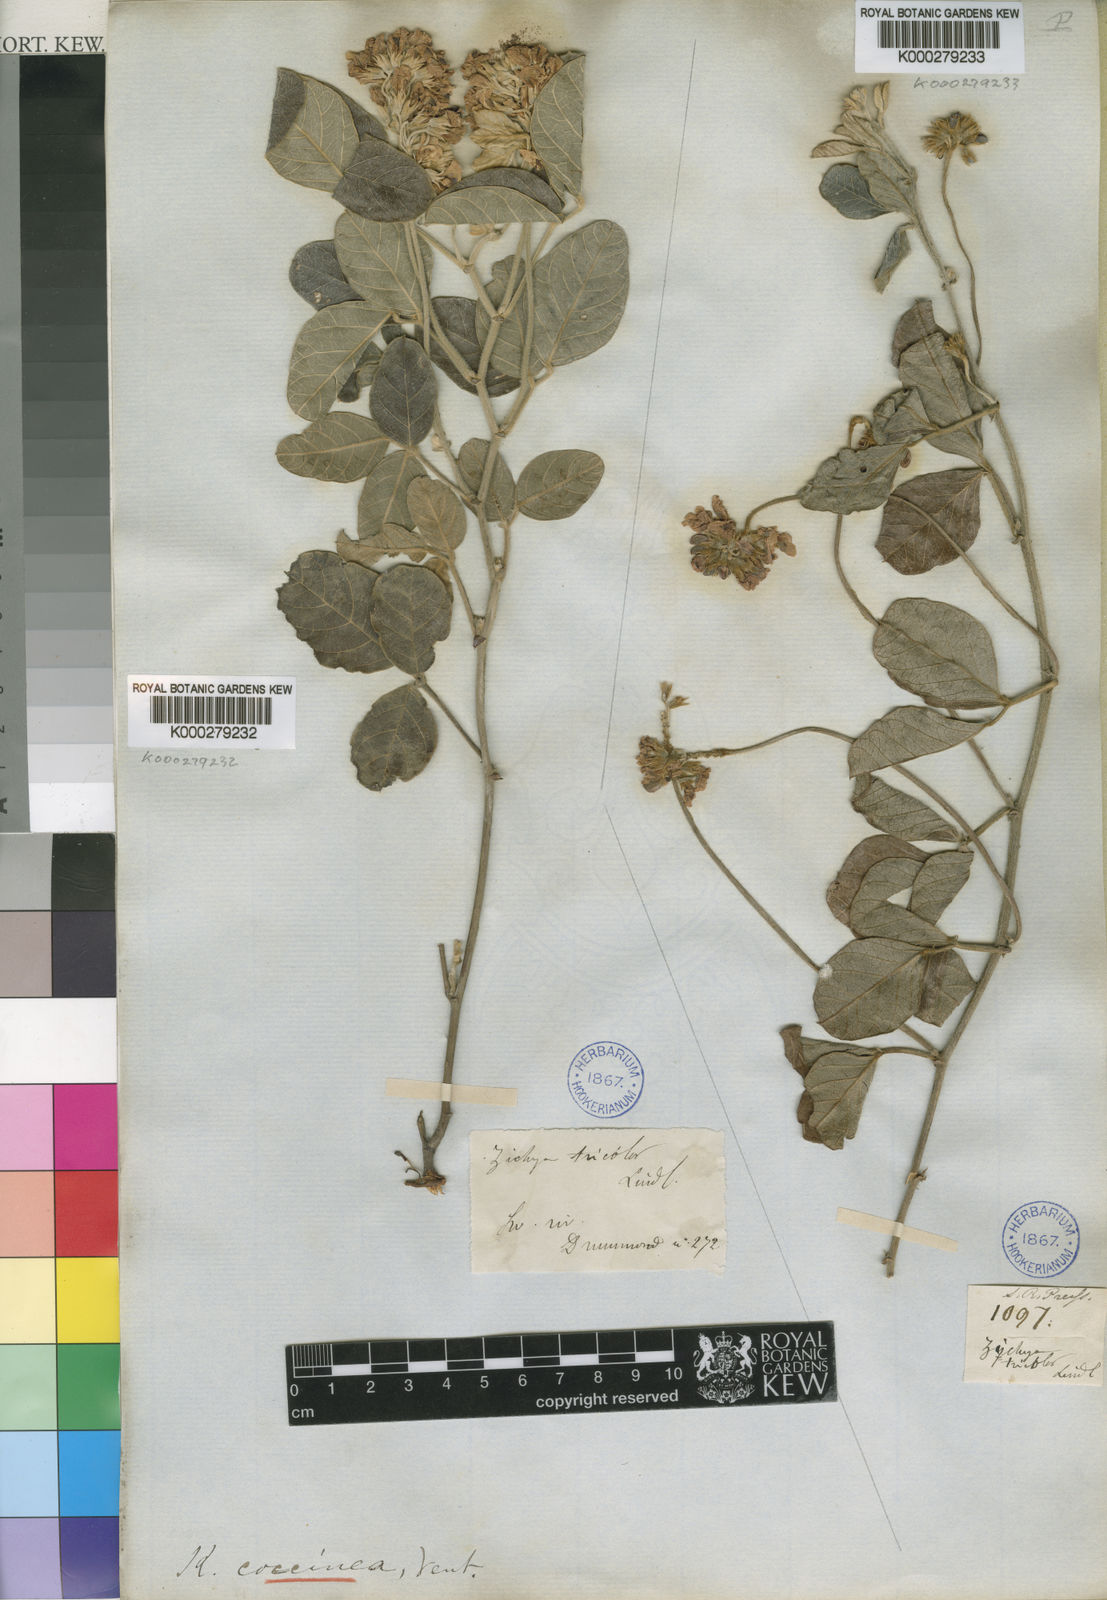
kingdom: Plantae
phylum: Tracheophyta
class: Magnoliopsida
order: Fabales
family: Fabaceae
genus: Kennedia
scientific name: Kennedia coccinea
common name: Coralvine
